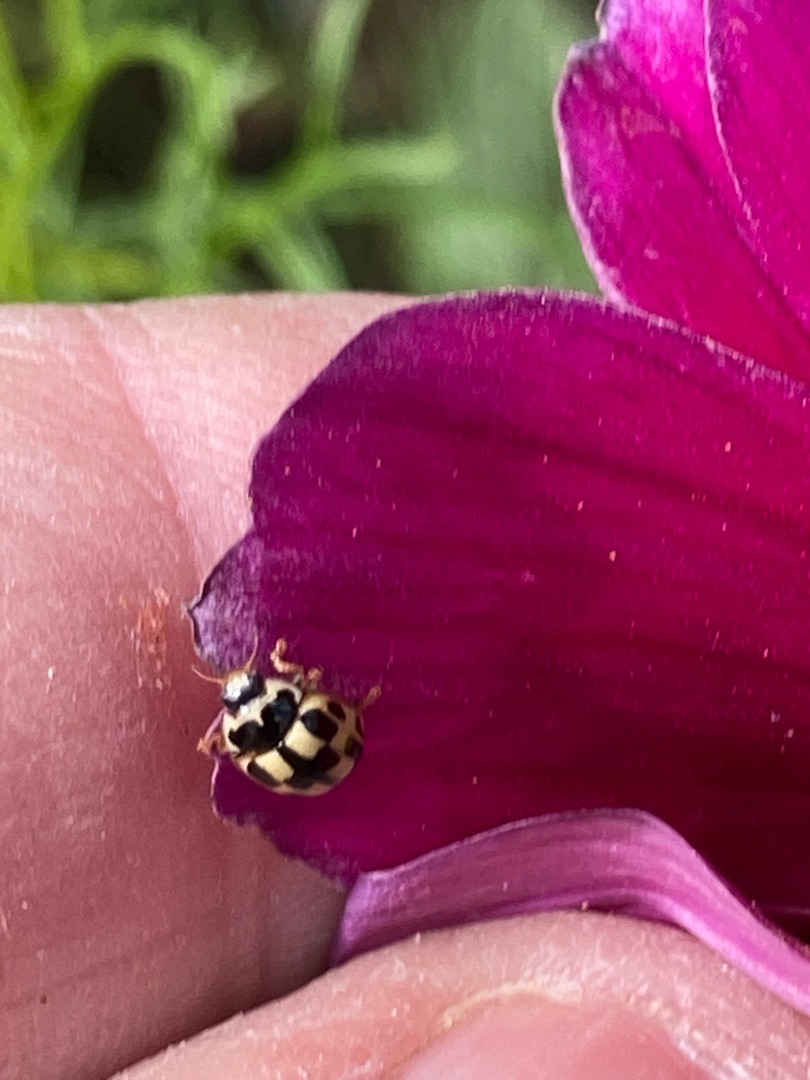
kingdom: Animalia
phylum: Arthropoda
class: Insecta
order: Coleoptera
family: Coccinellidae
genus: Propylaea
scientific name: Propylaea quatuordecimpunctata
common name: Skakbræt
